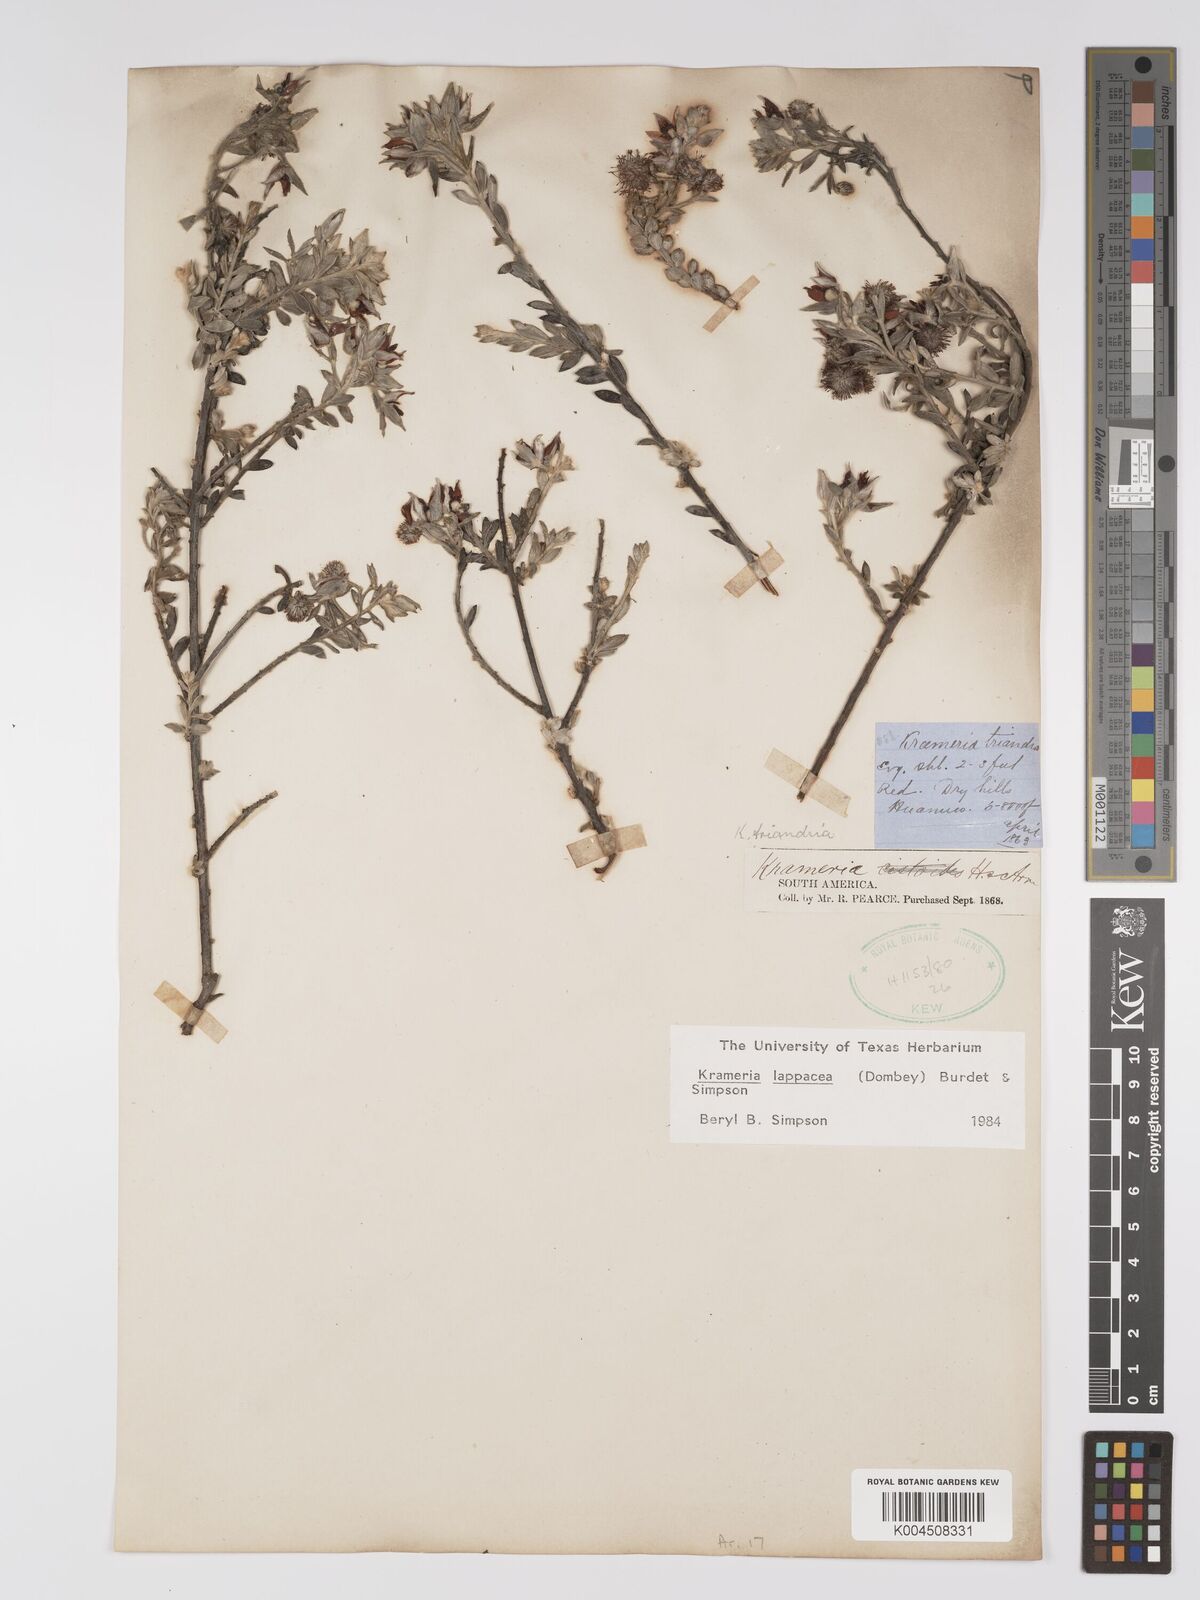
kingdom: Plantae
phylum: Tracheophyta
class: Magnoliopsida
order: Zygophyllales
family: Krameriaceae
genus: Krameria
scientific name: Krameria lappacea
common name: Rhatany
